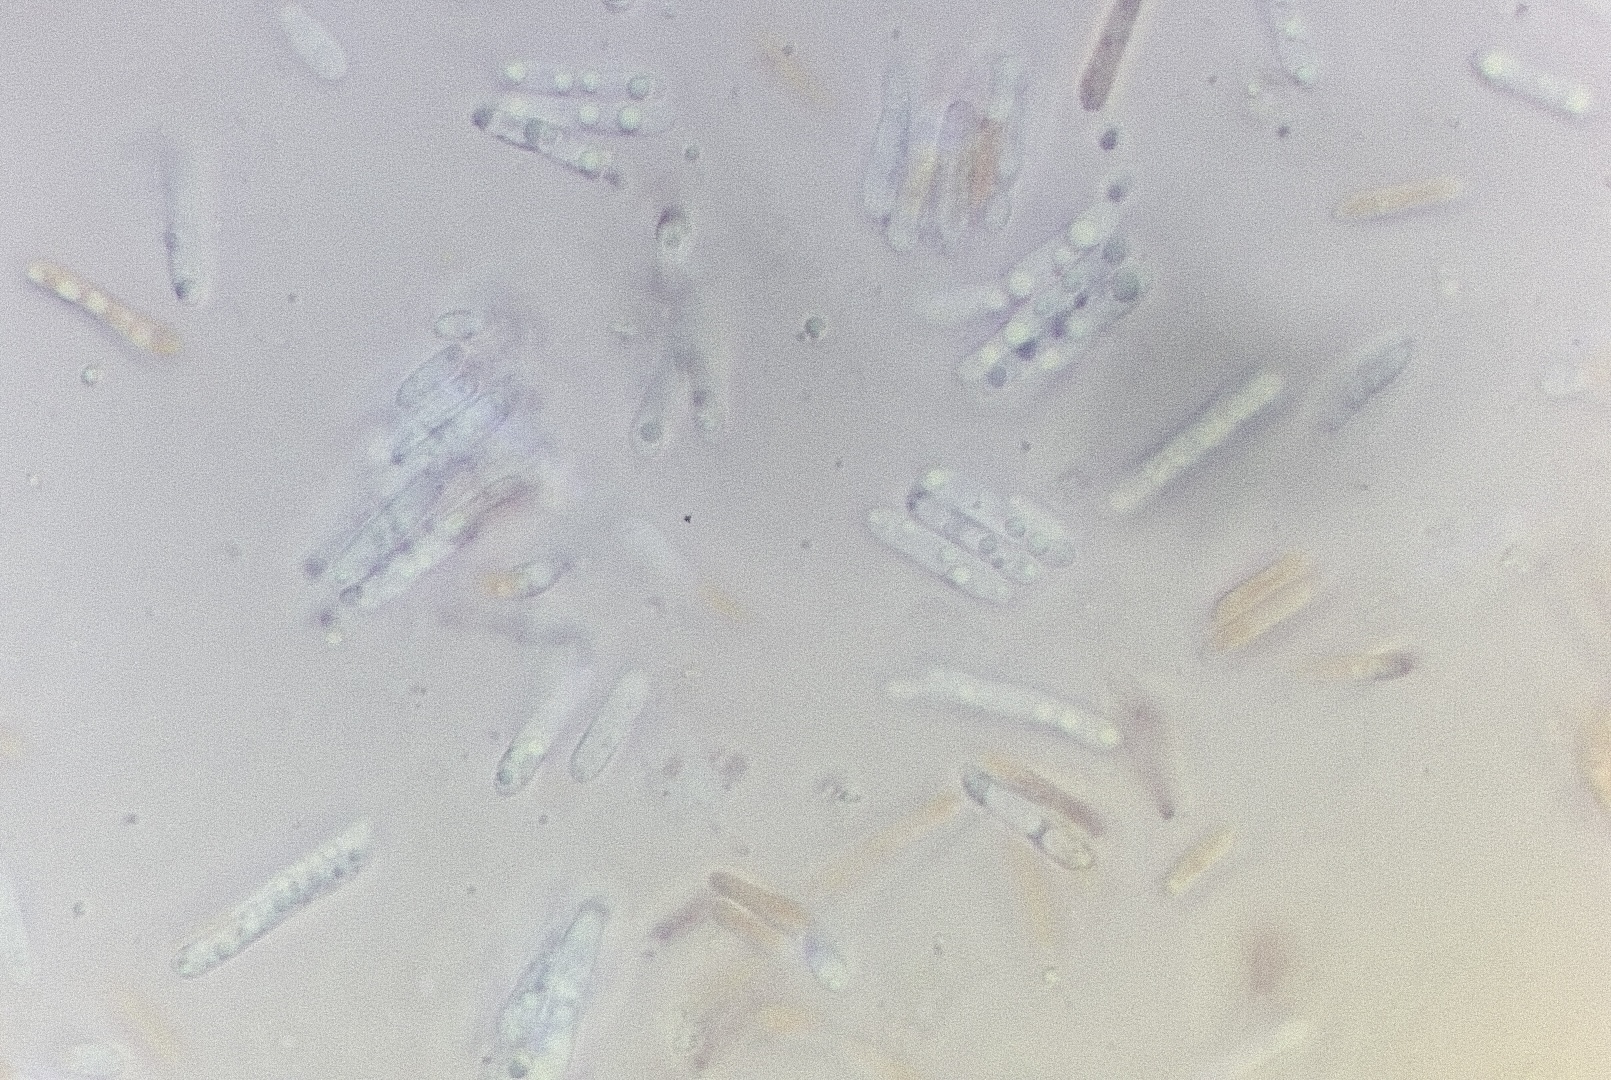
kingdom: Fungi
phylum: Ascomycota
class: Leotiomycetes
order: Helotiales
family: Helotiaceae
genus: Trichotheca
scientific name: Trichotheca alba
